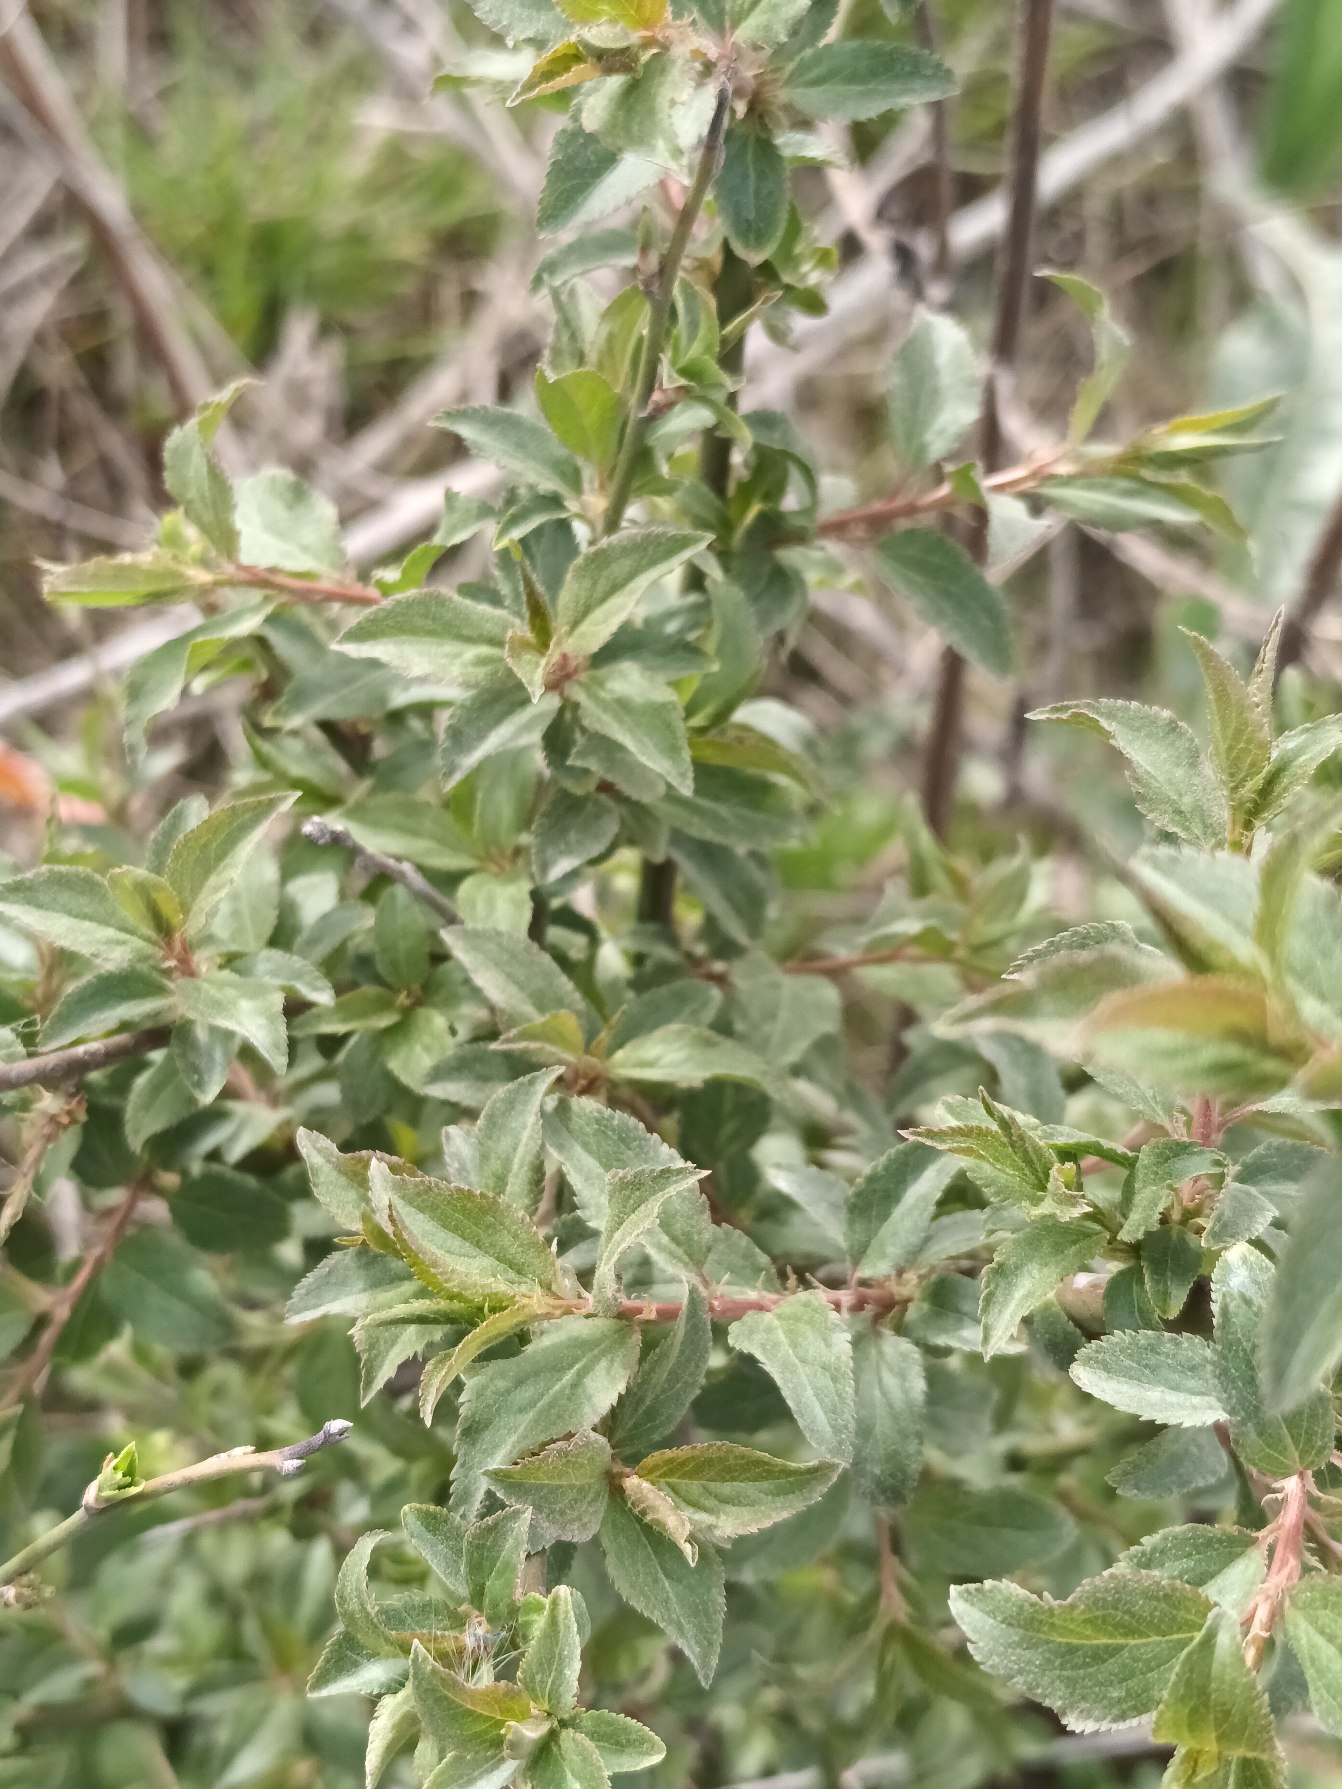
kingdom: Plantae
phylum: Tracheophyta
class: Magnoliopsida
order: Rosales
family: Rosaceae
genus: Prunus
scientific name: Prunus cerasifera
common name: Mirabel
